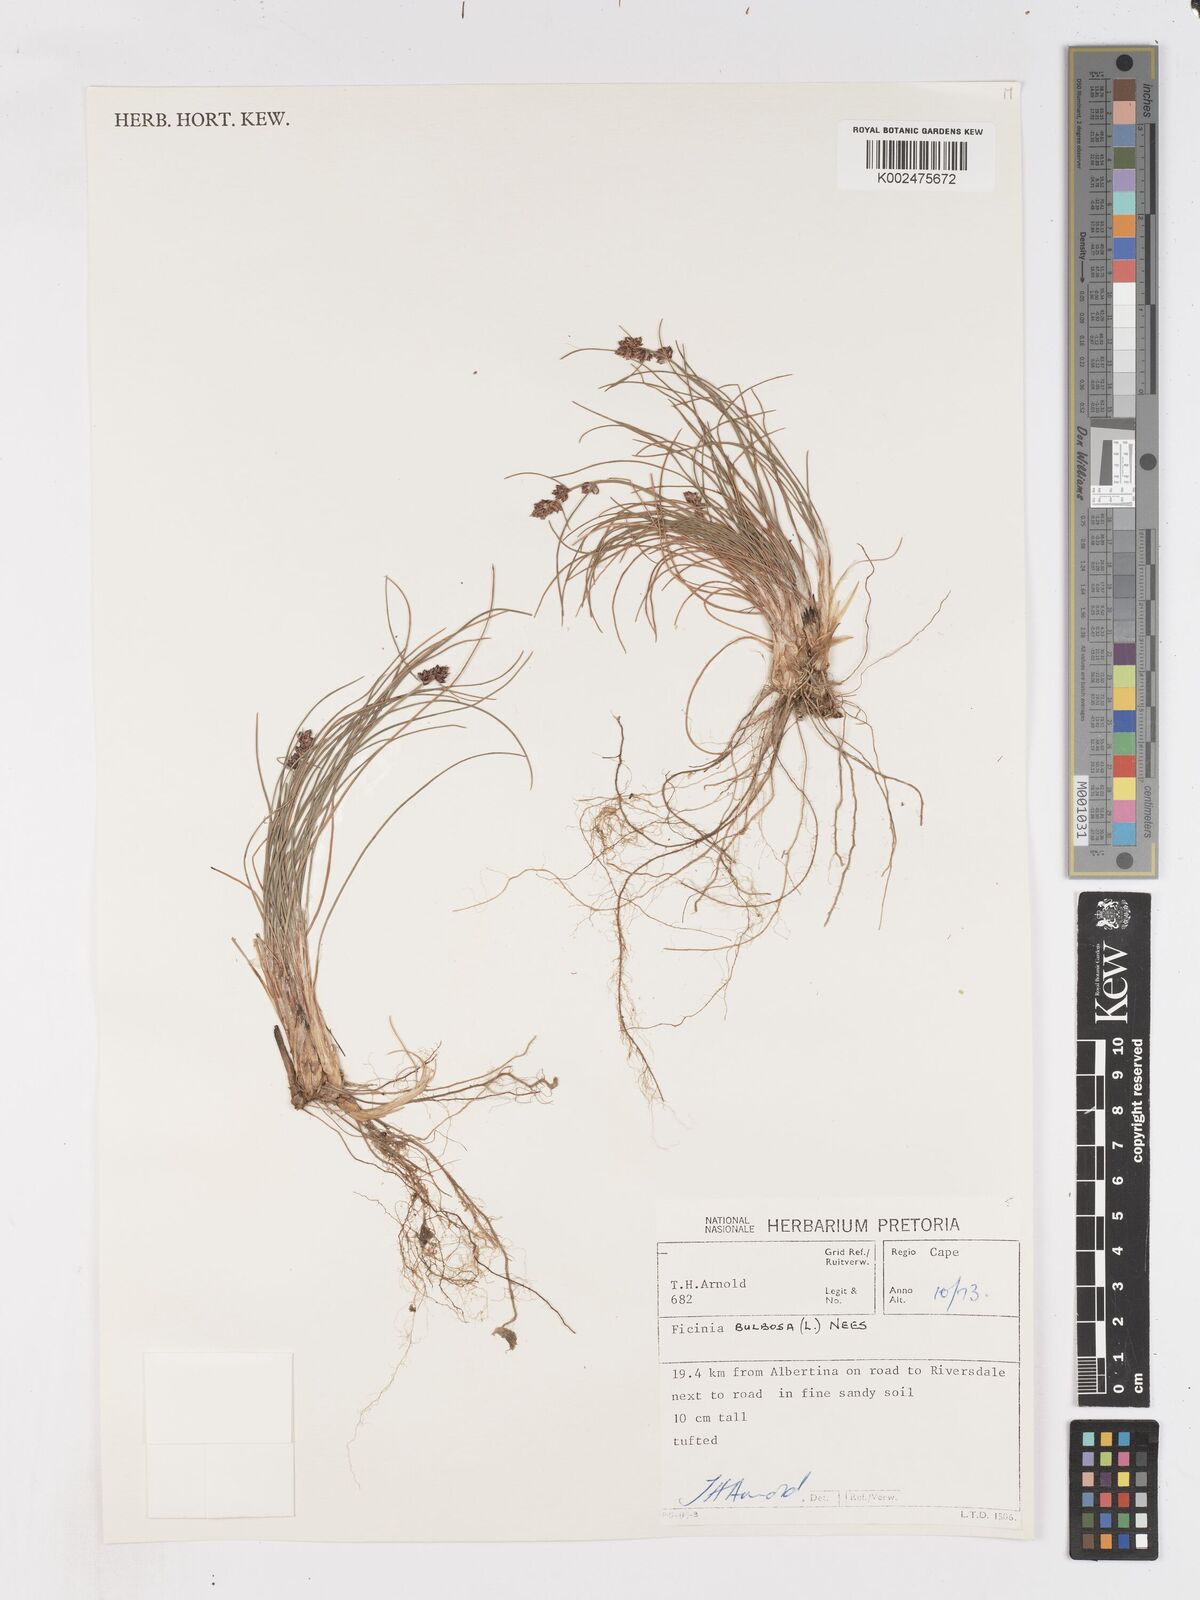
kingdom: Plantae
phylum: Tracheophyta
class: Liliopsida
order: Poales
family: Cyperaceae
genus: Ficinia
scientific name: Ficinia bulbosa
